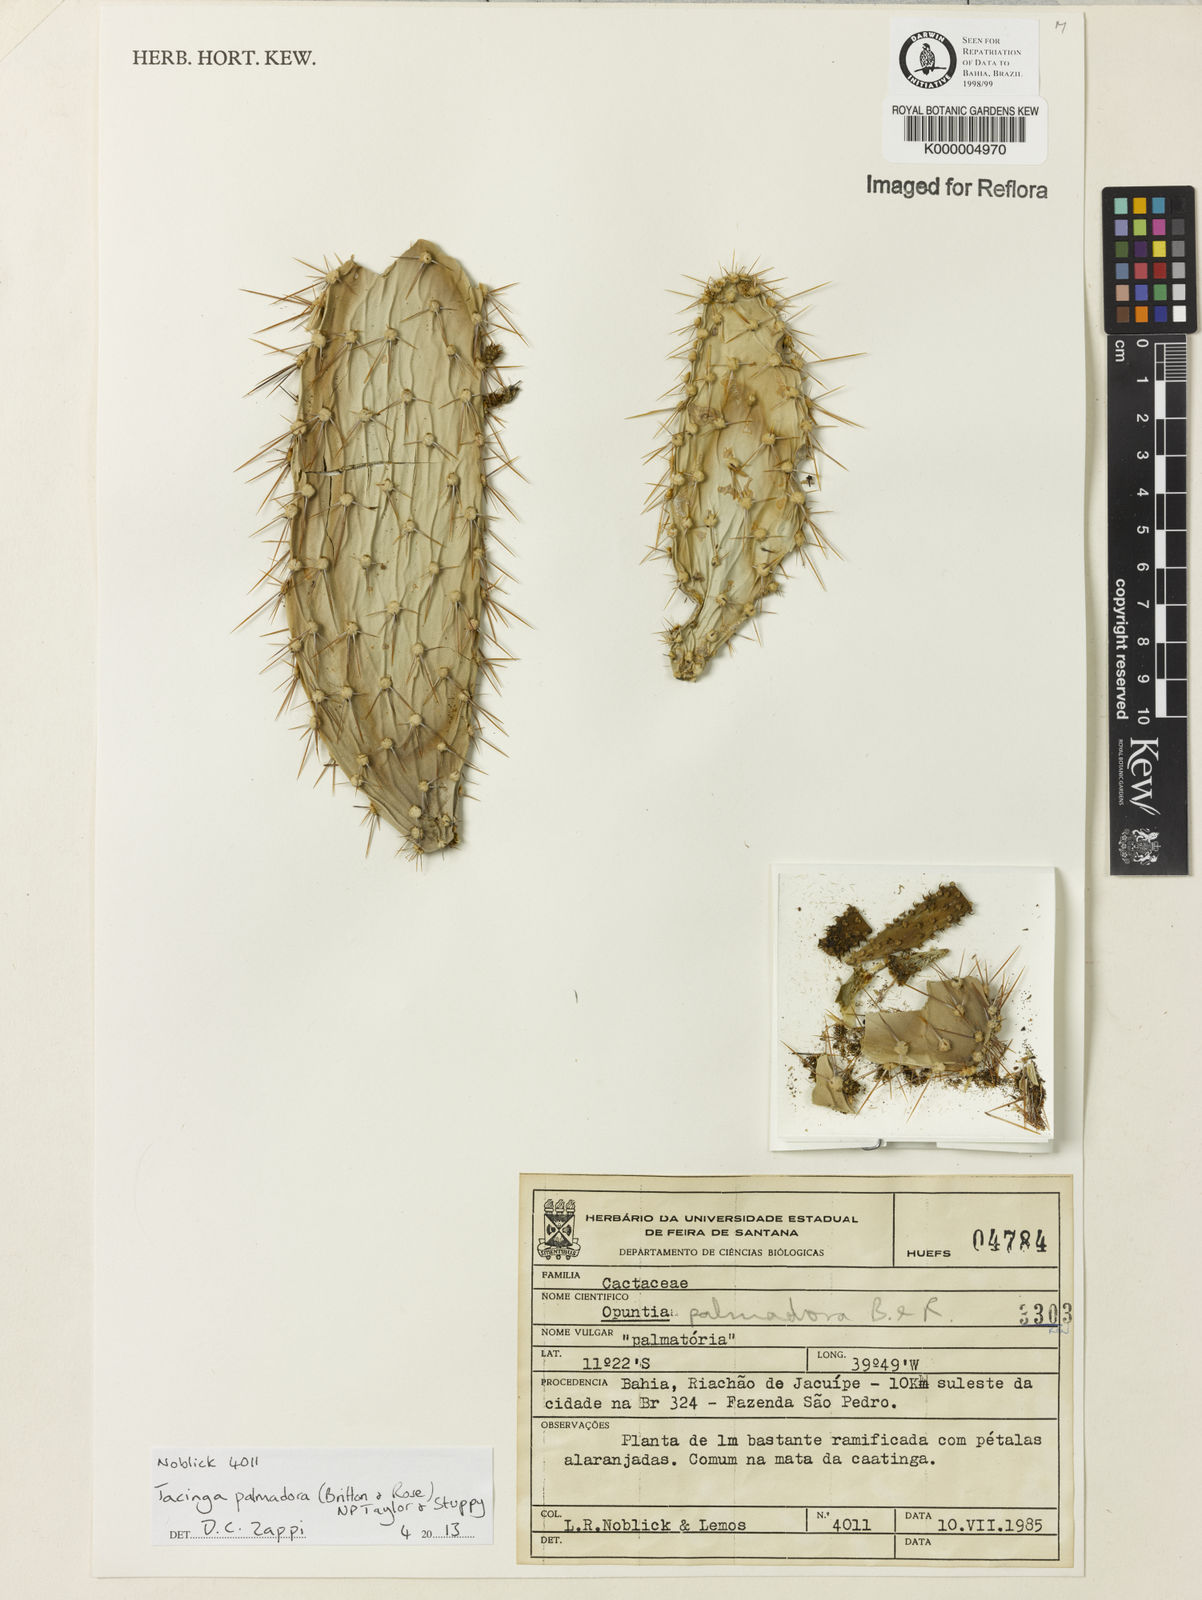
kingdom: Plantae
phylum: Tracheophyta
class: Magnoliopsida
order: Caryophyllales
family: Cactaceae
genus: Tacinga
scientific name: Tacinga palmadora
